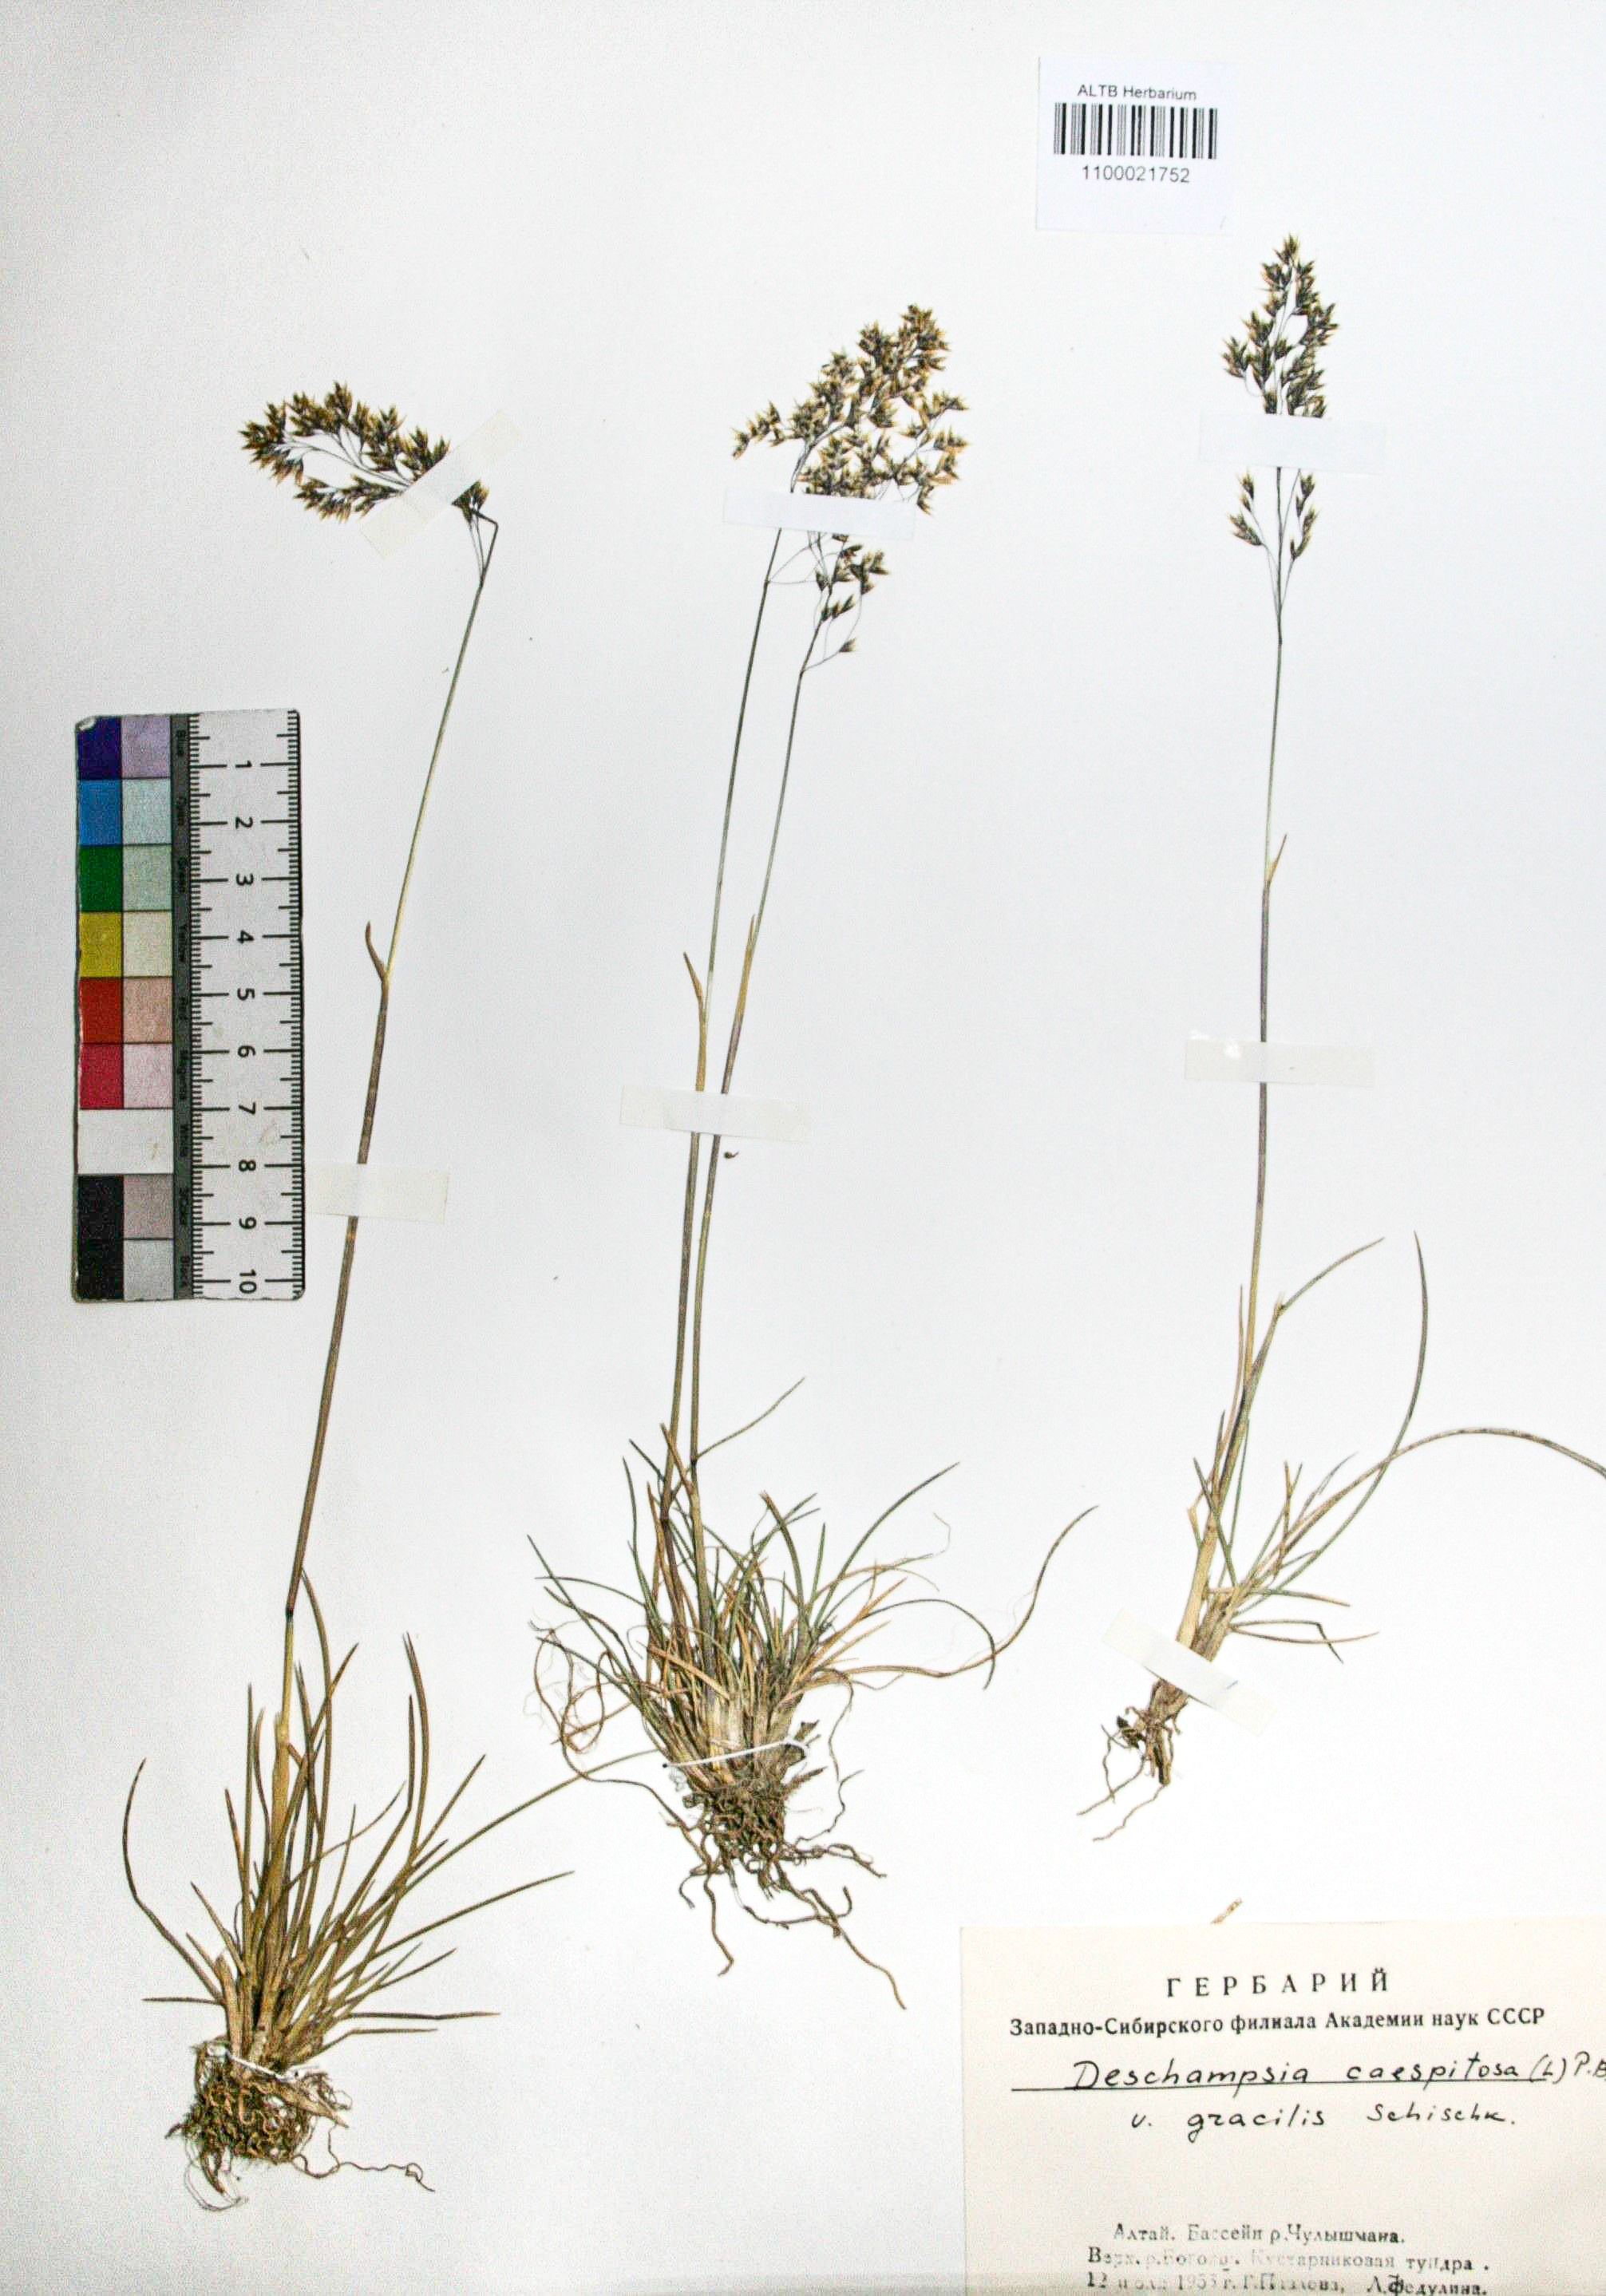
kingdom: Plantae
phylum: Tracheophyta
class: Liliopsida
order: Poales
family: Poaceae
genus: Deschampsia
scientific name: Deschampsia cespitosa
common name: Tufted hair-grass
